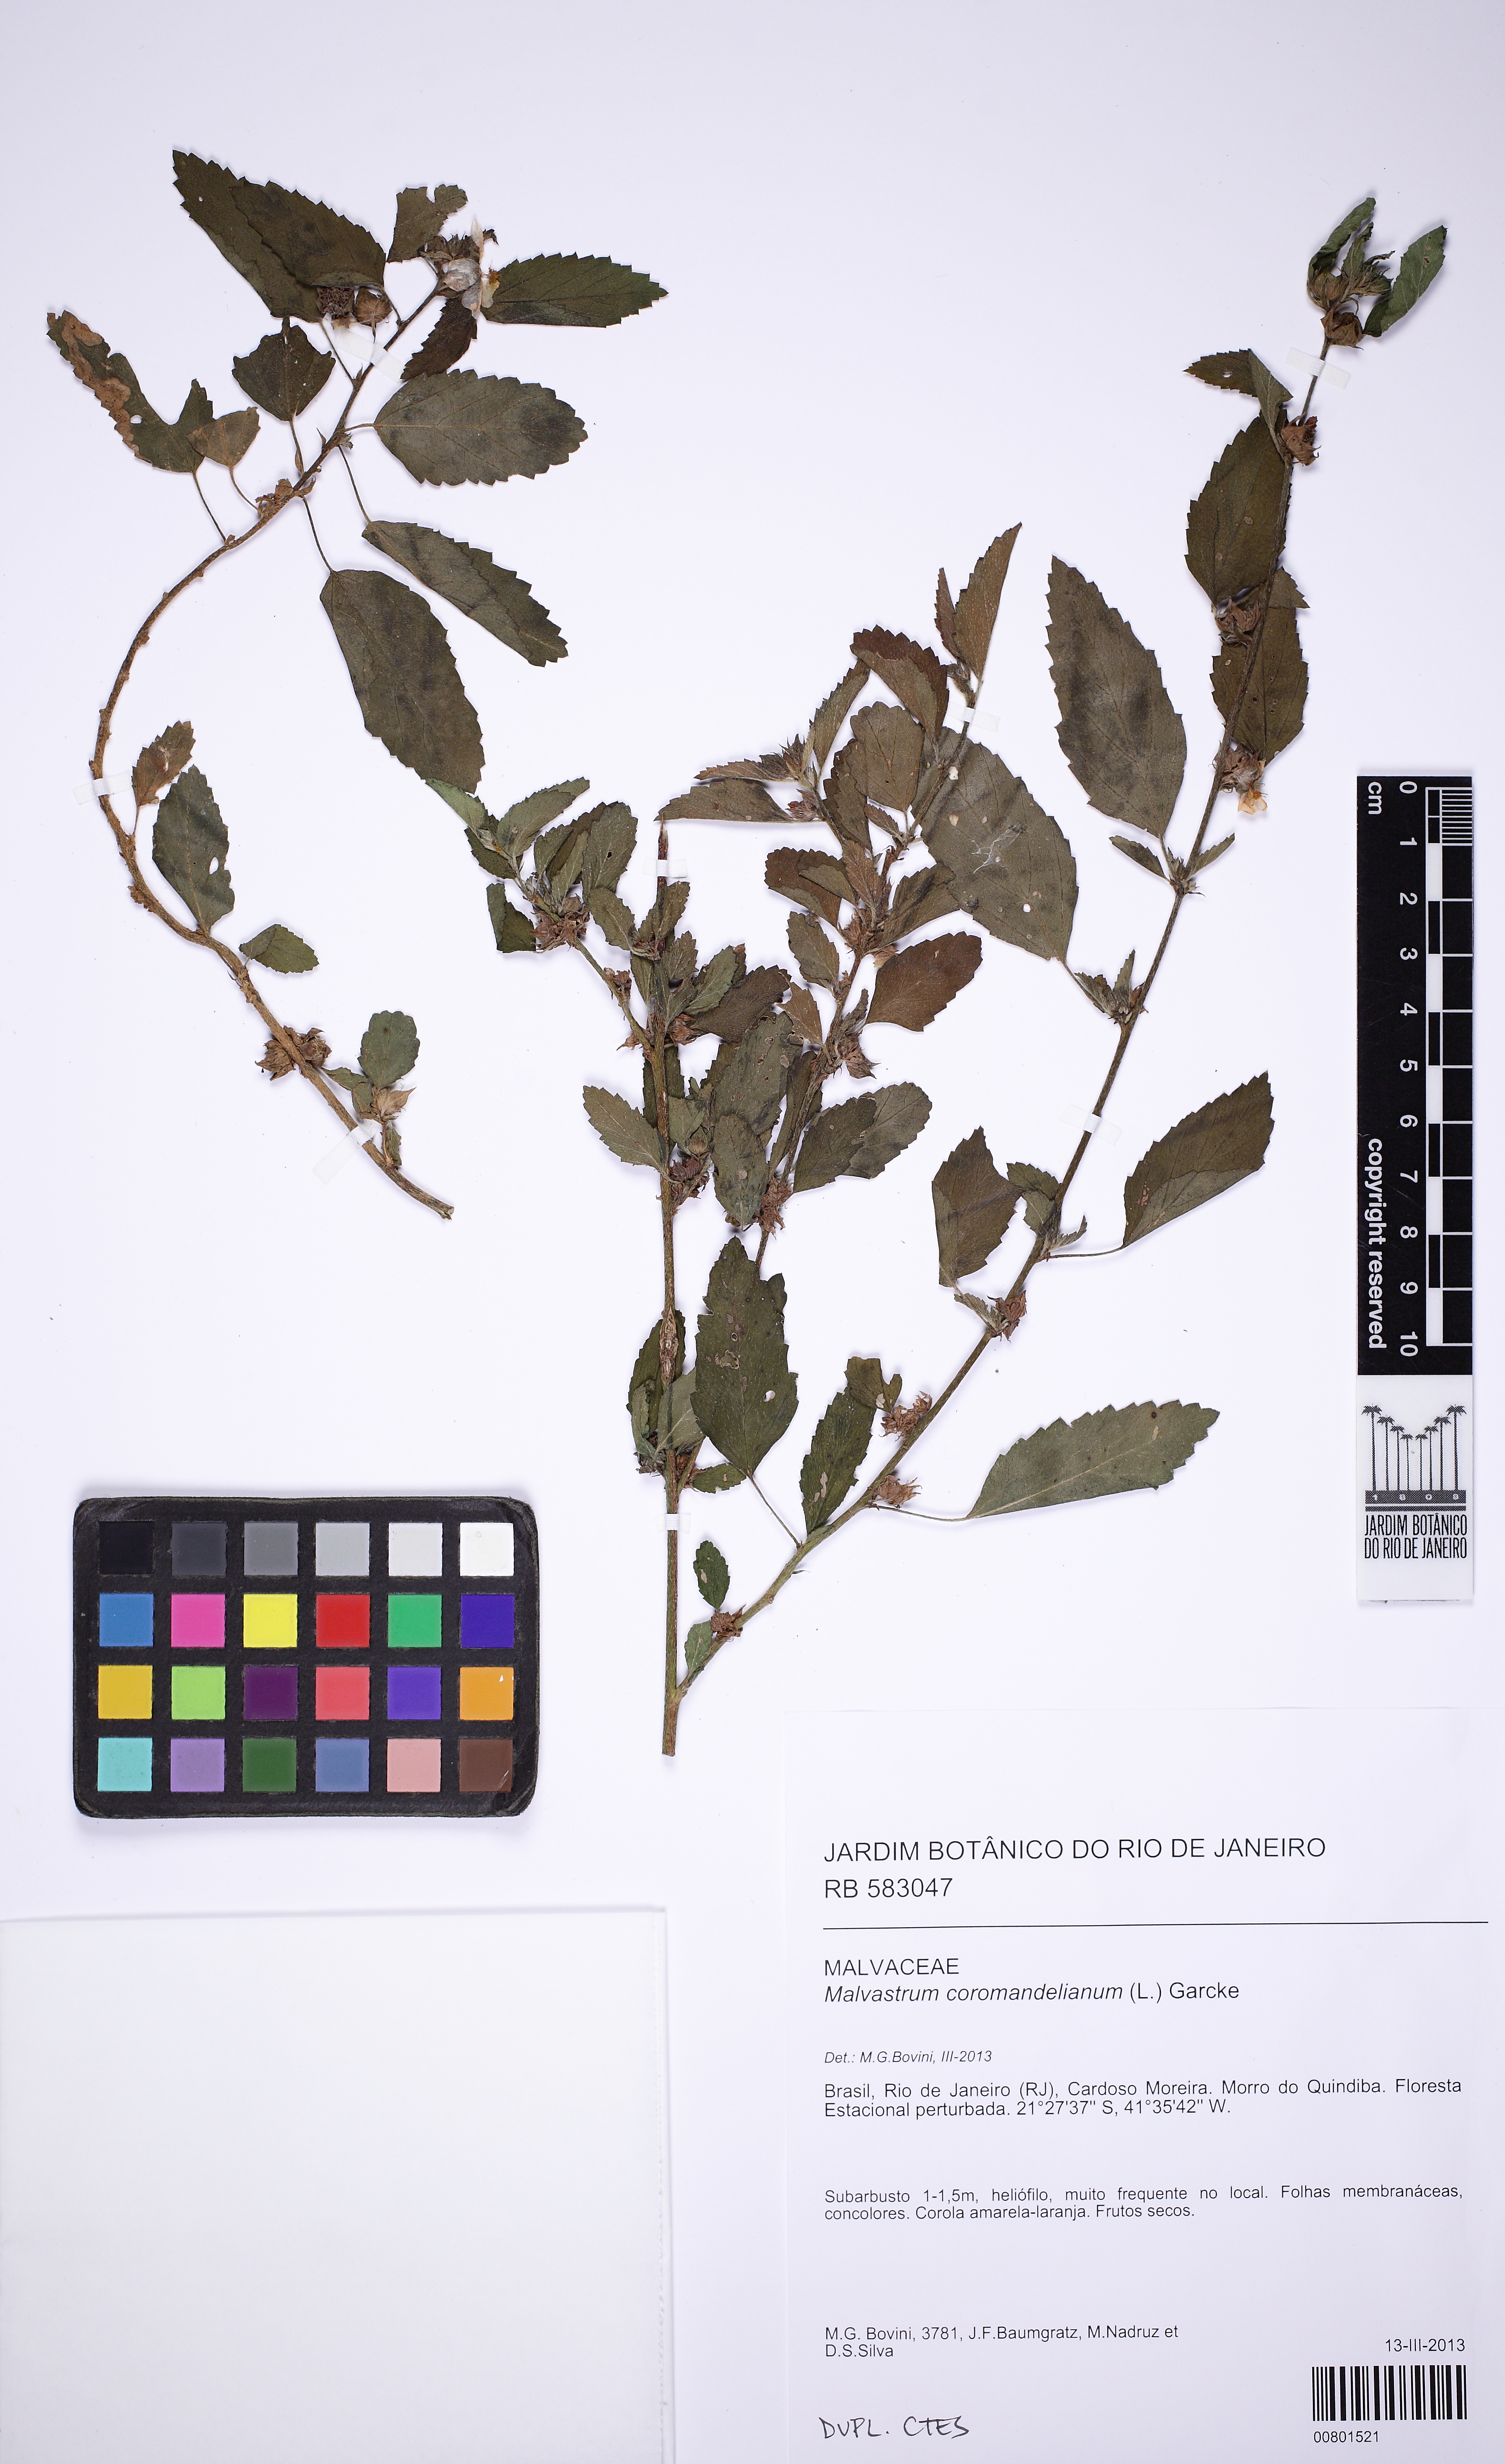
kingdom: Plantae
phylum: Tracheophyta
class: Magnoliopsida
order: Malvales
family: Malvaceae
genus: Malvastrum
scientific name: Malvastrum coromandelianum
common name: Threelobe false mallow
